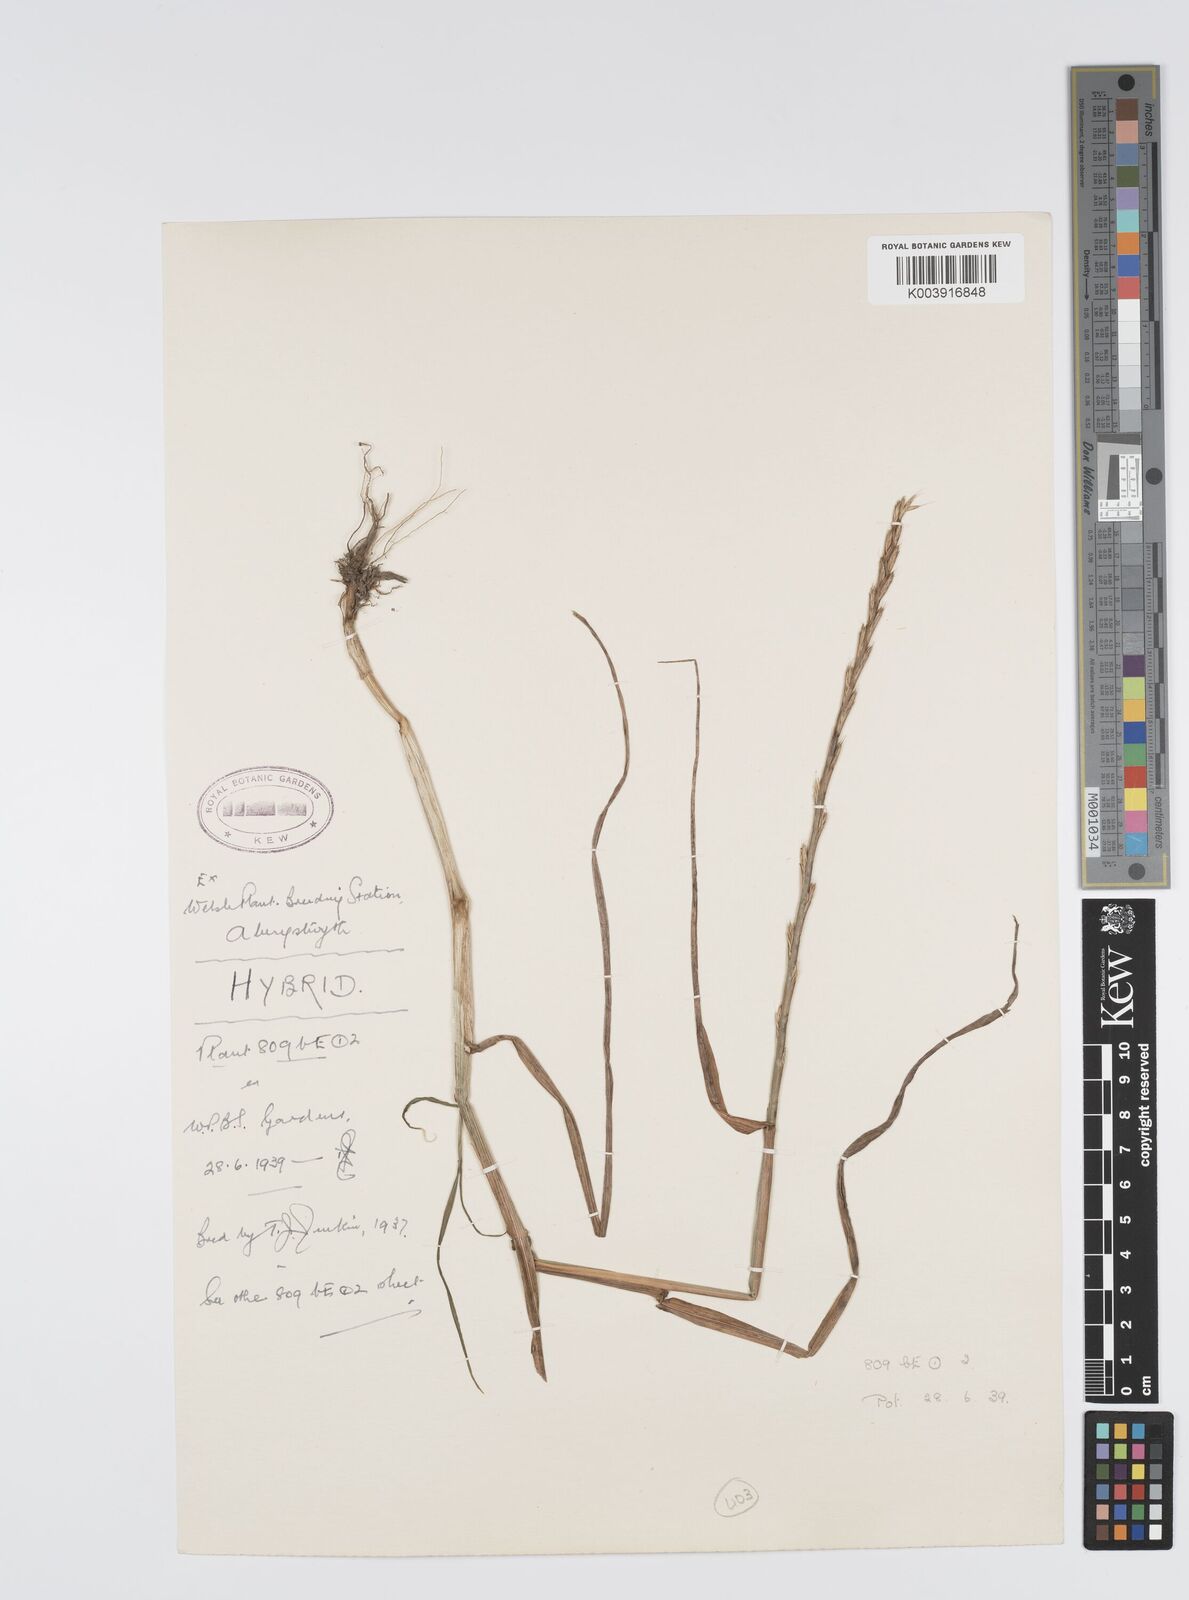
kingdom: Plantae
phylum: Tracheophyta
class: Liliopsida
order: Poales
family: Poaceae
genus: Lolium
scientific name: Lolium multiflorum
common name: Annual ryegrass
